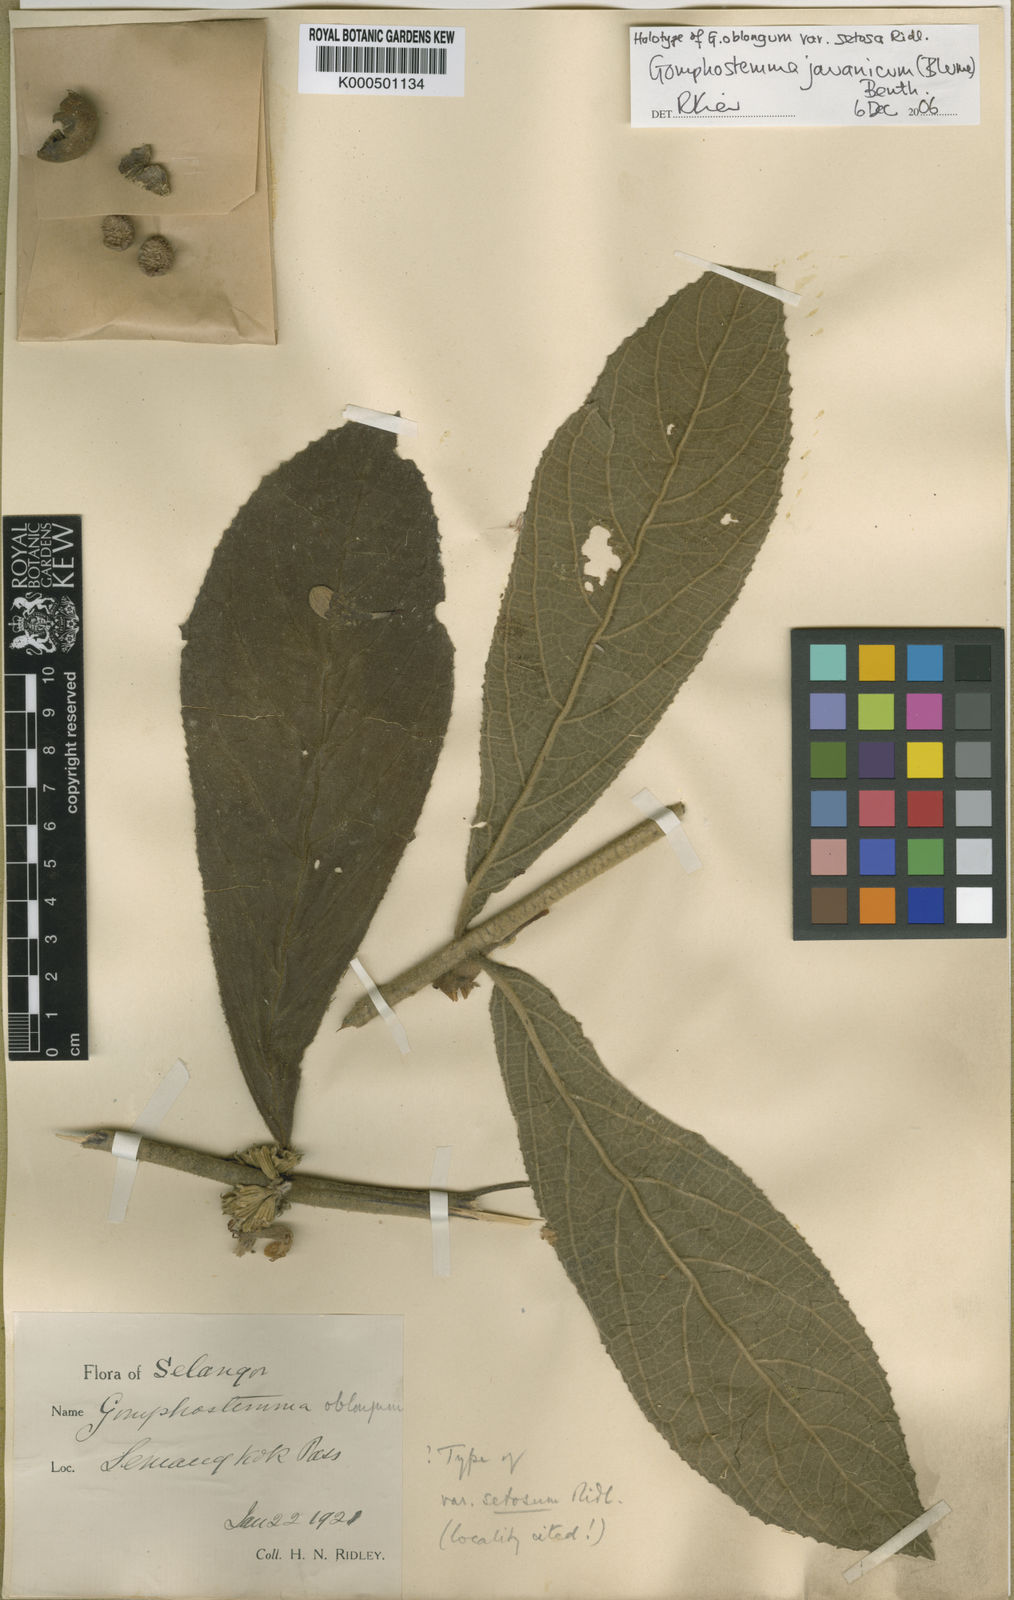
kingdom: Plantae
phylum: Tracheophyta
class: Magnoliopsida
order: Lamiales
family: Lamiaceae
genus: Gomphostemma
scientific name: Gomphostemma javanicum
